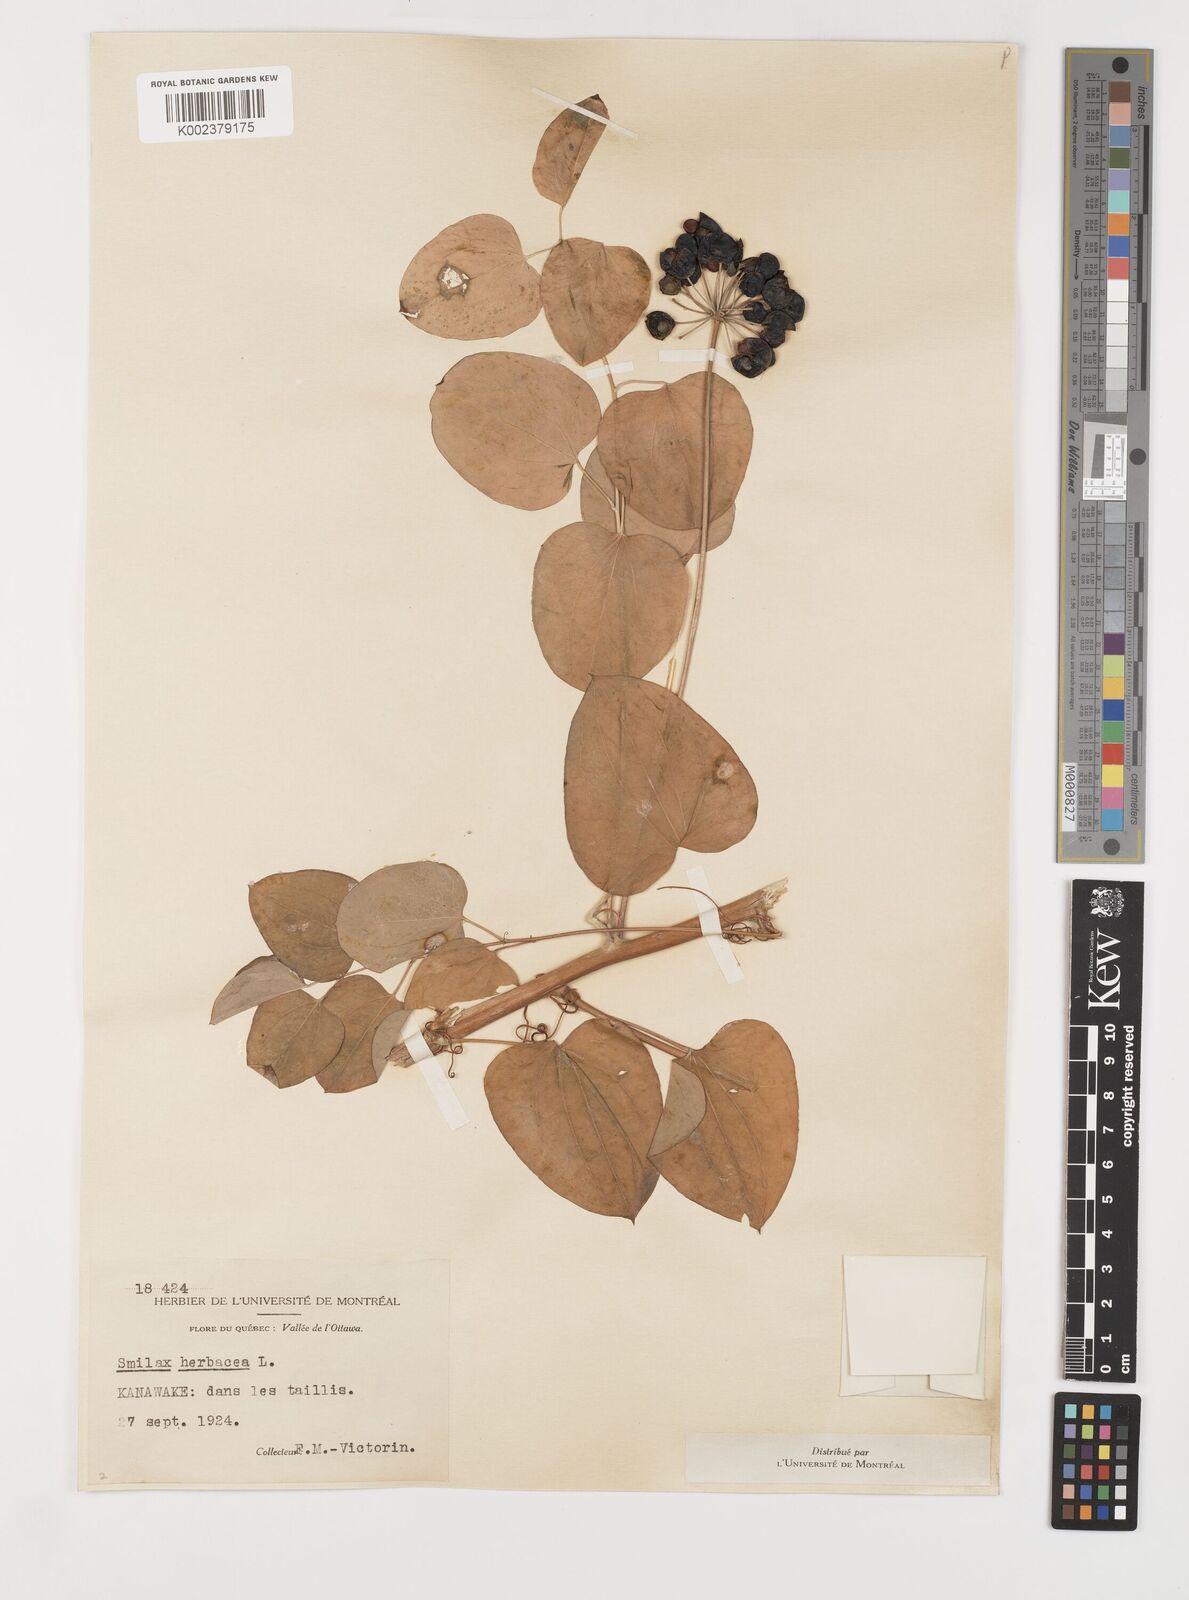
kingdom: Plantae
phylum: Tracheophyta
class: Liliopsida
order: Liliales
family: Smilacaceae
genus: Smilax
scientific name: Smilax herbacea
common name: Jacob's-ladder
